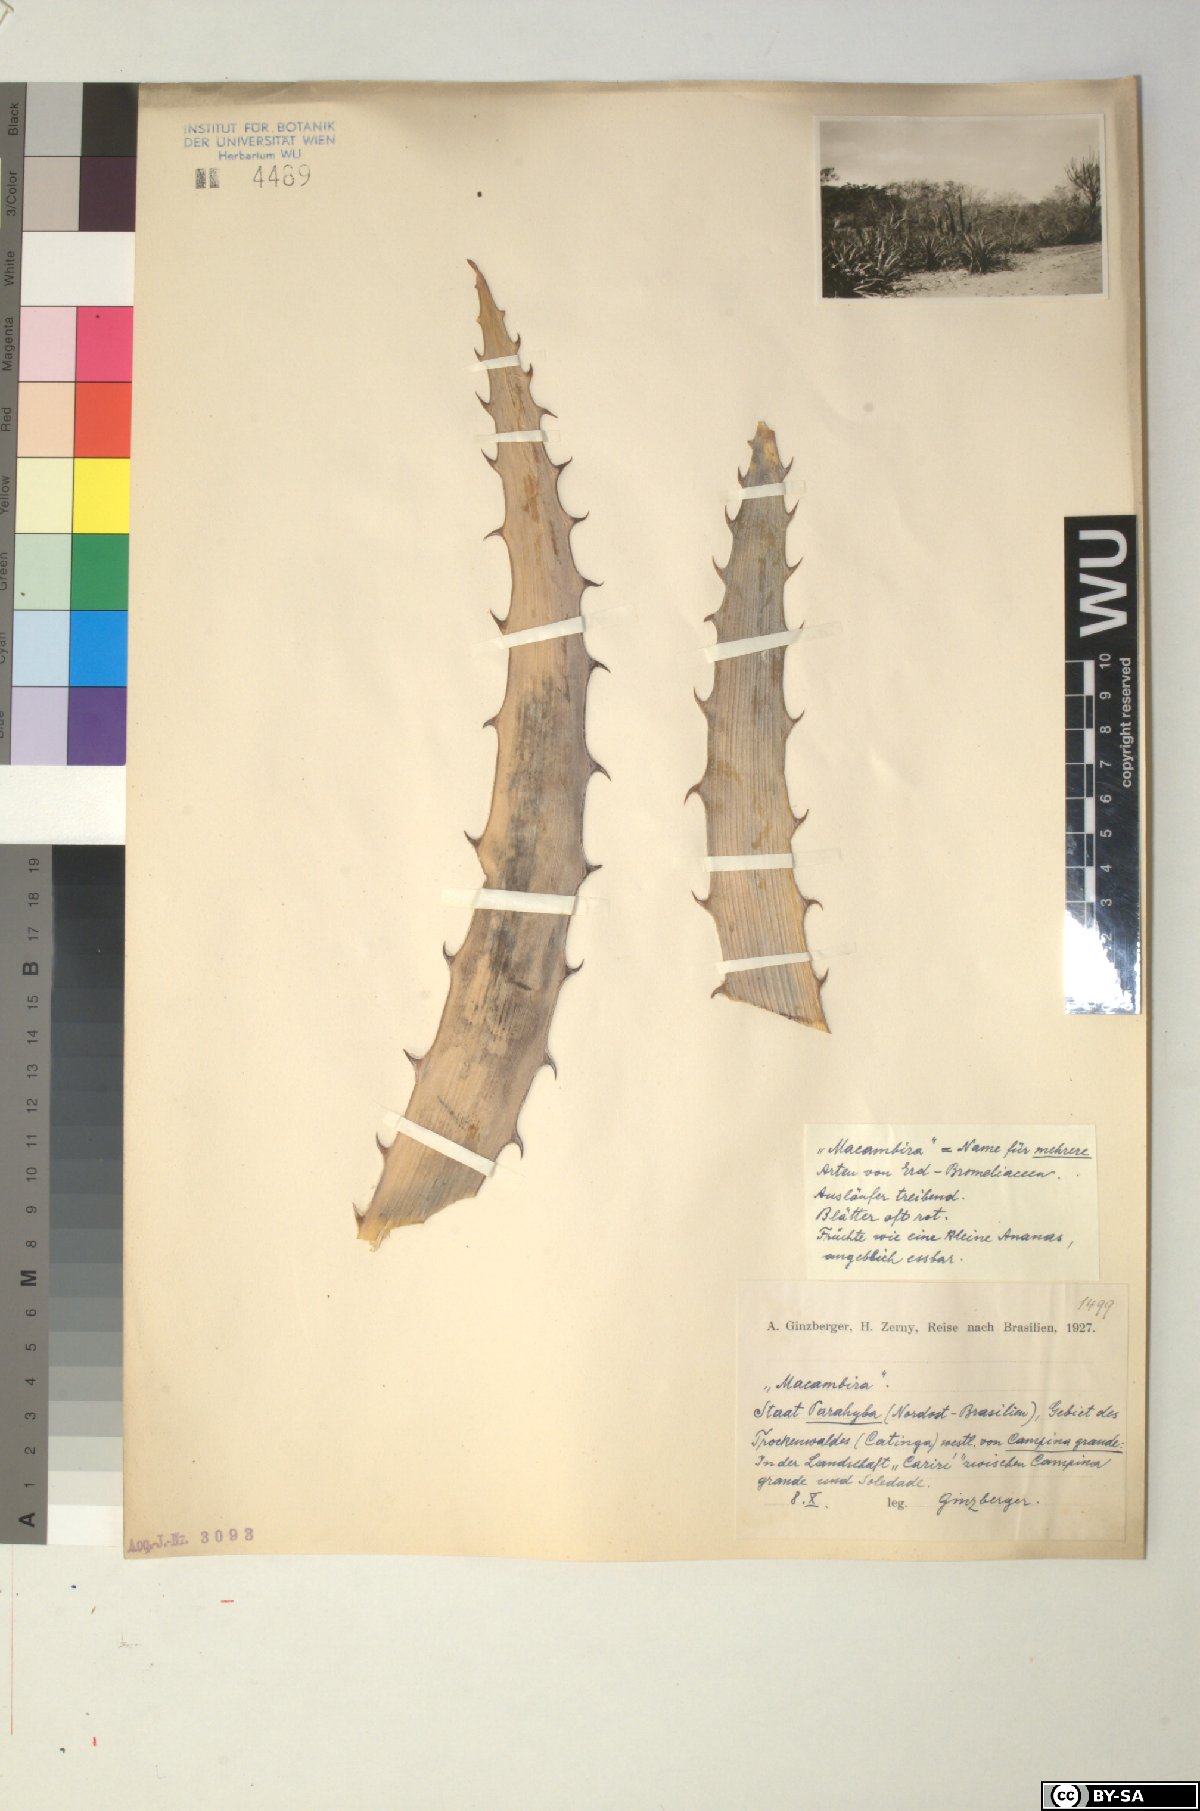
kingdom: Plantae
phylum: Tracheophyta
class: Liliopsida
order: Poales
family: Bromeliaceae
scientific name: Bromeliaceae
